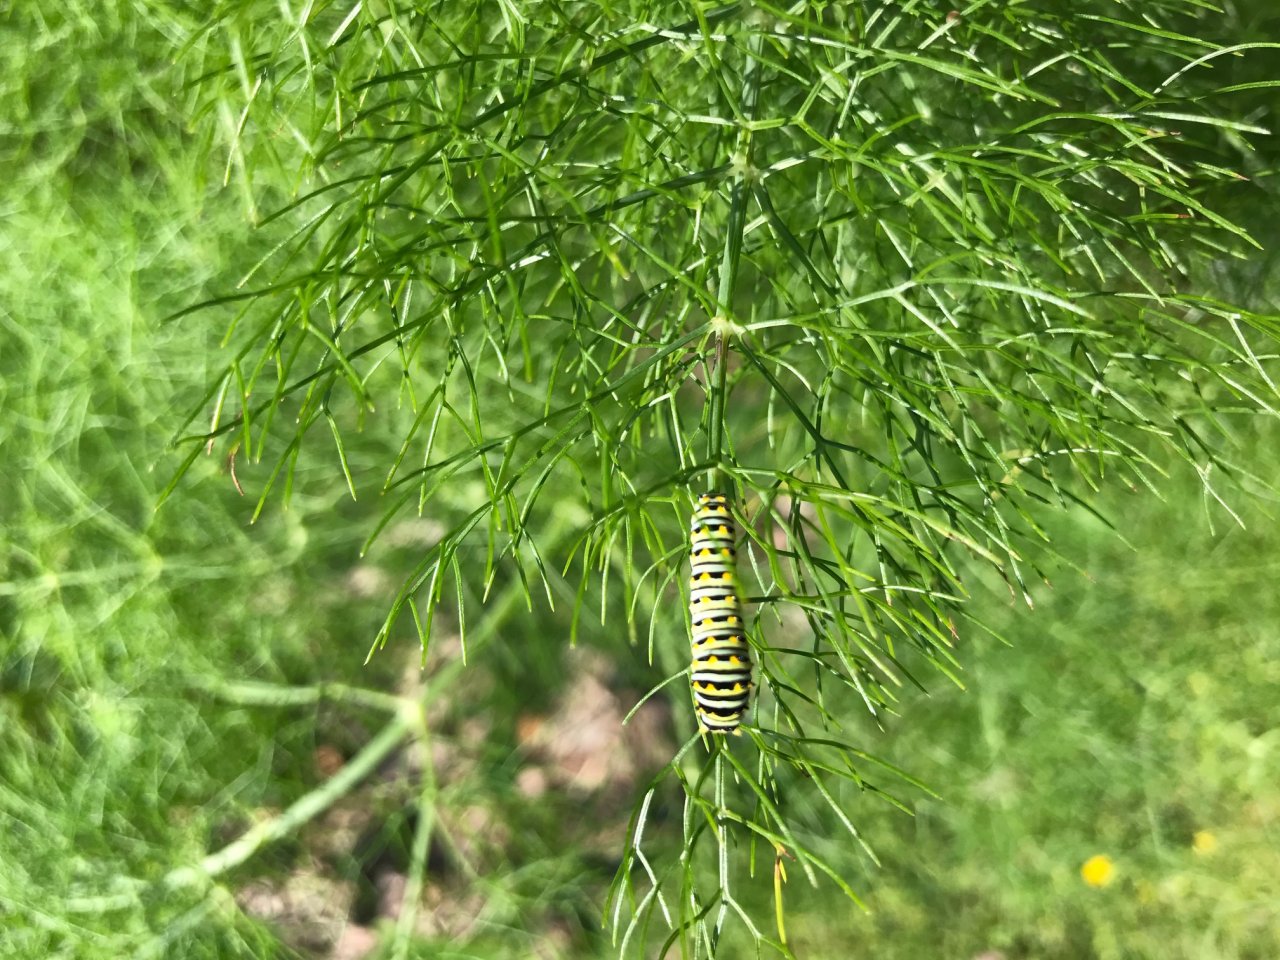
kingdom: Animalia
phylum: Arthropoda
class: Insecta
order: Lepidoptera
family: Papilionidae
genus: Papilio
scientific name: Papilio polyxenes
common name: Black Swallowtail
